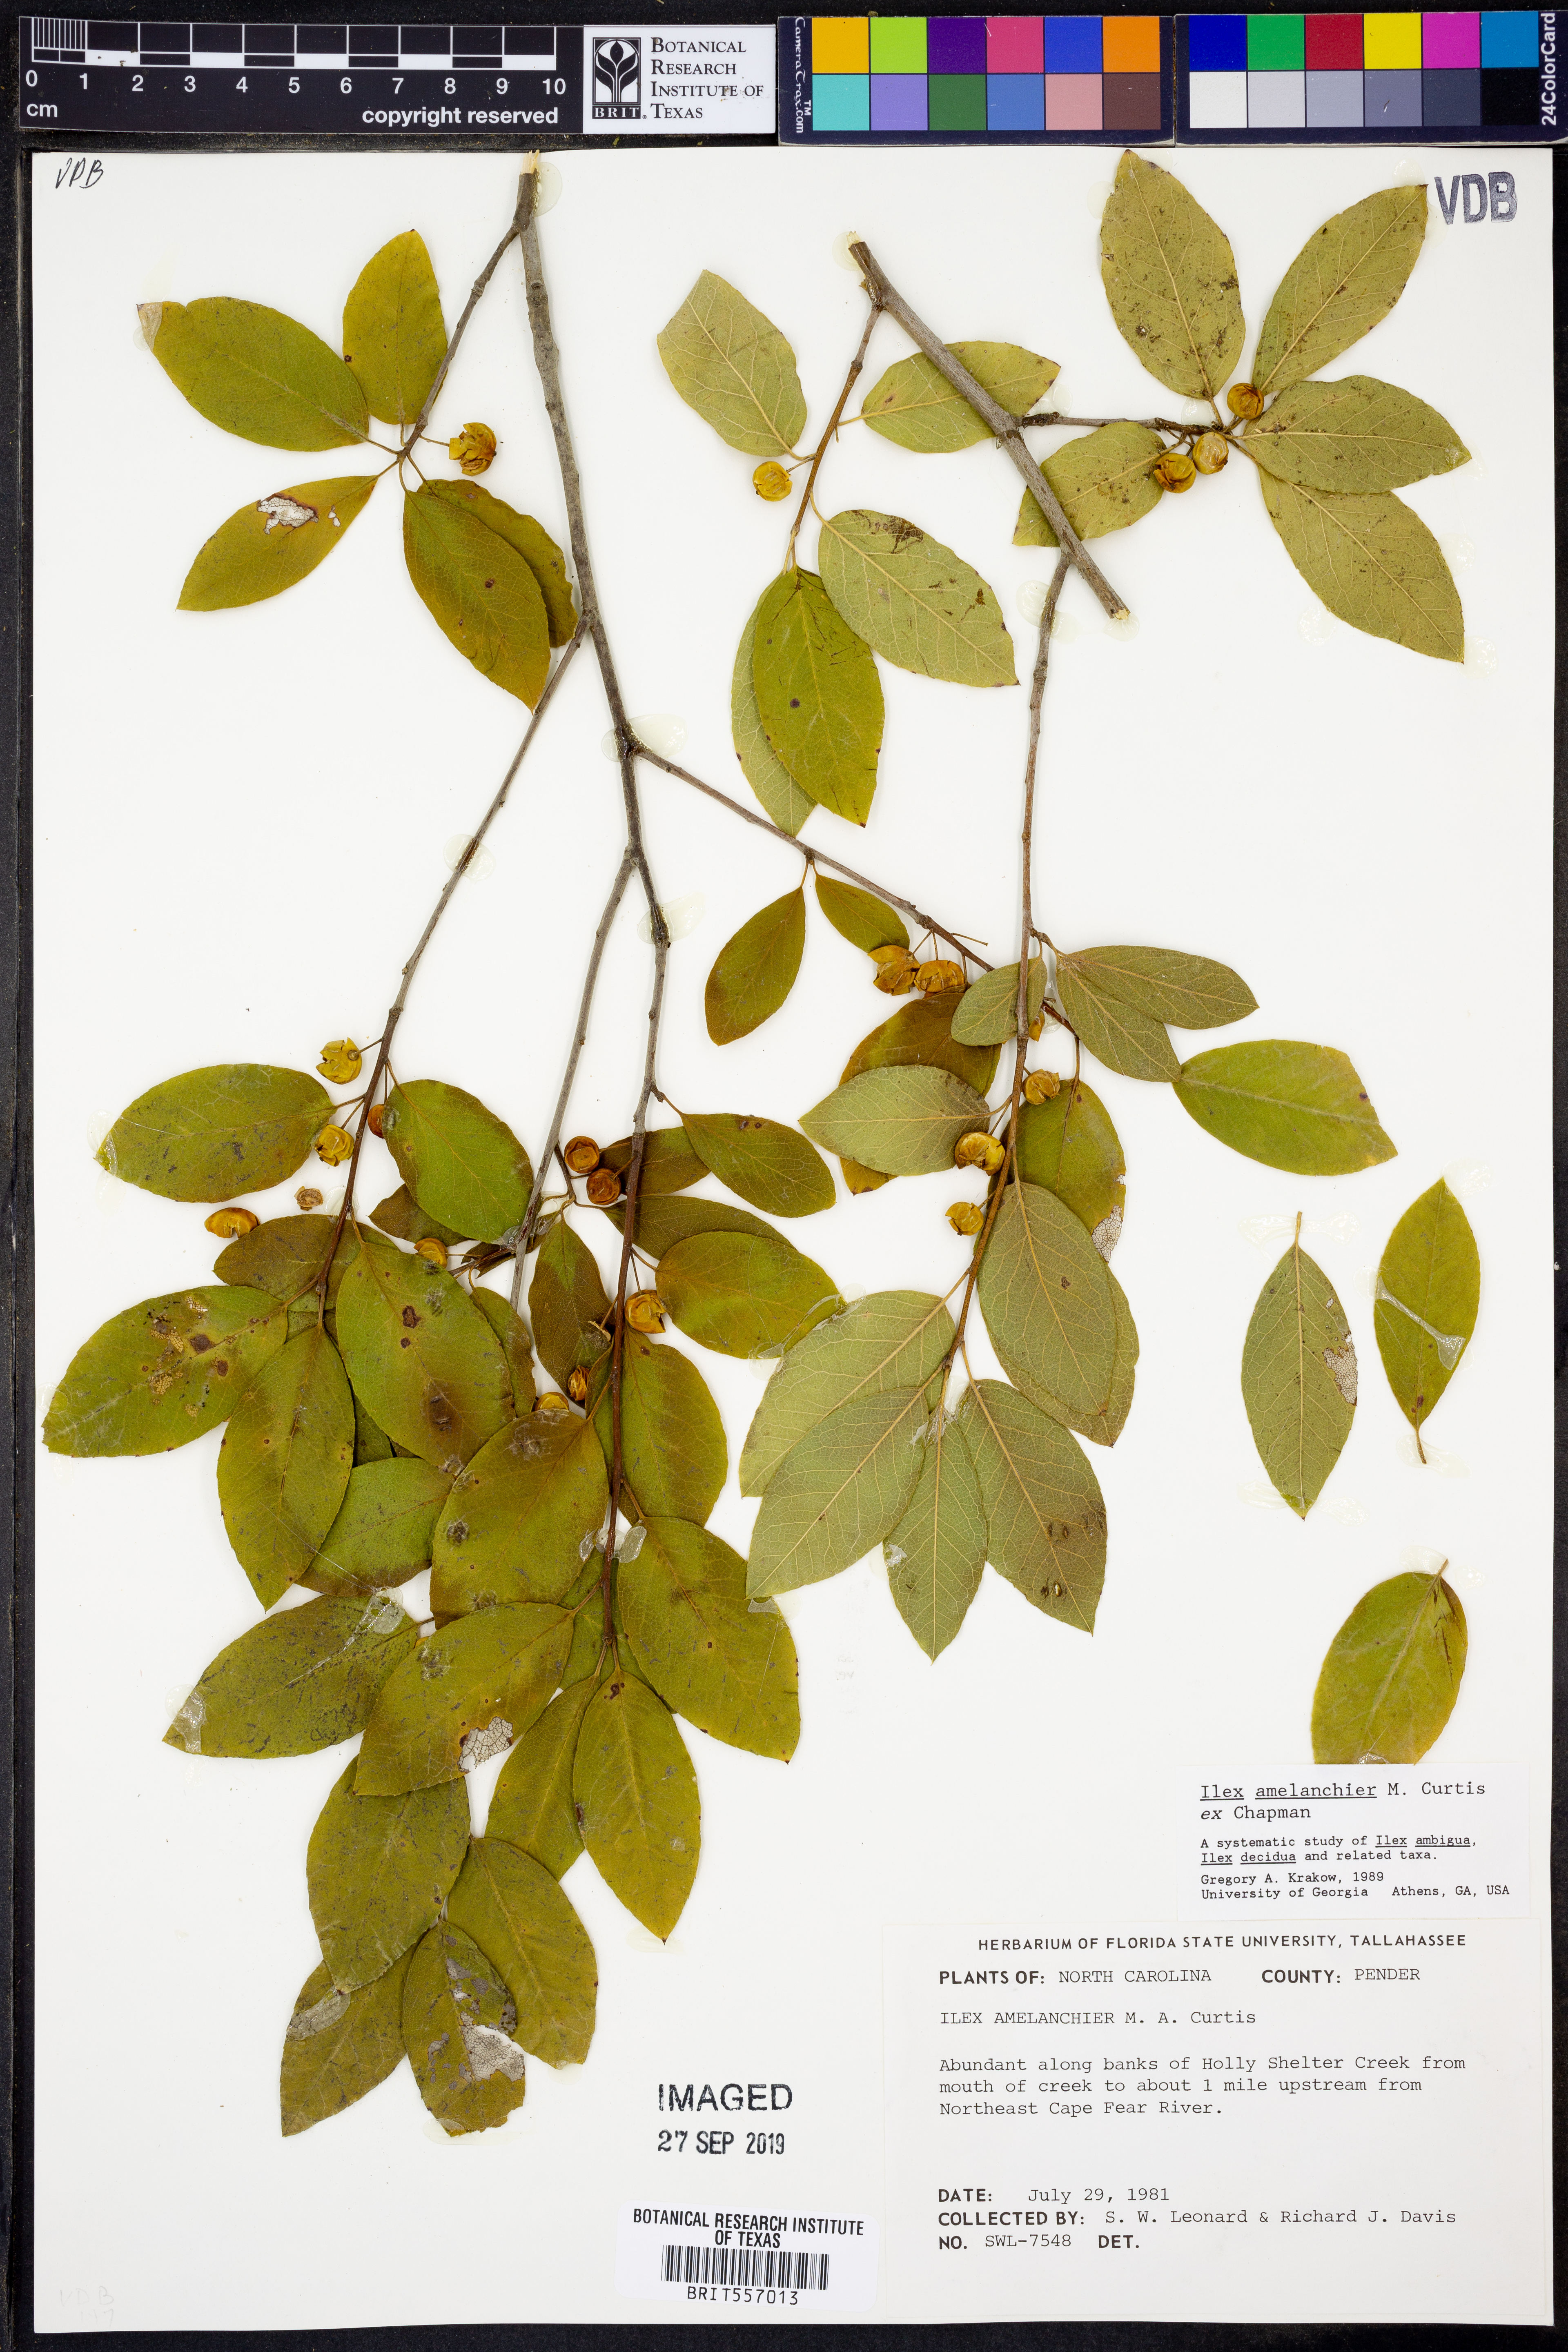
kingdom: Plantae
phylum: Tracheophyta
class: Magnoliopsida
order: Aquifoliales
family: Aquifoliaceae
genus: Ilex
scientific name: Ilex amelanchier
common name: Sarvis holly
